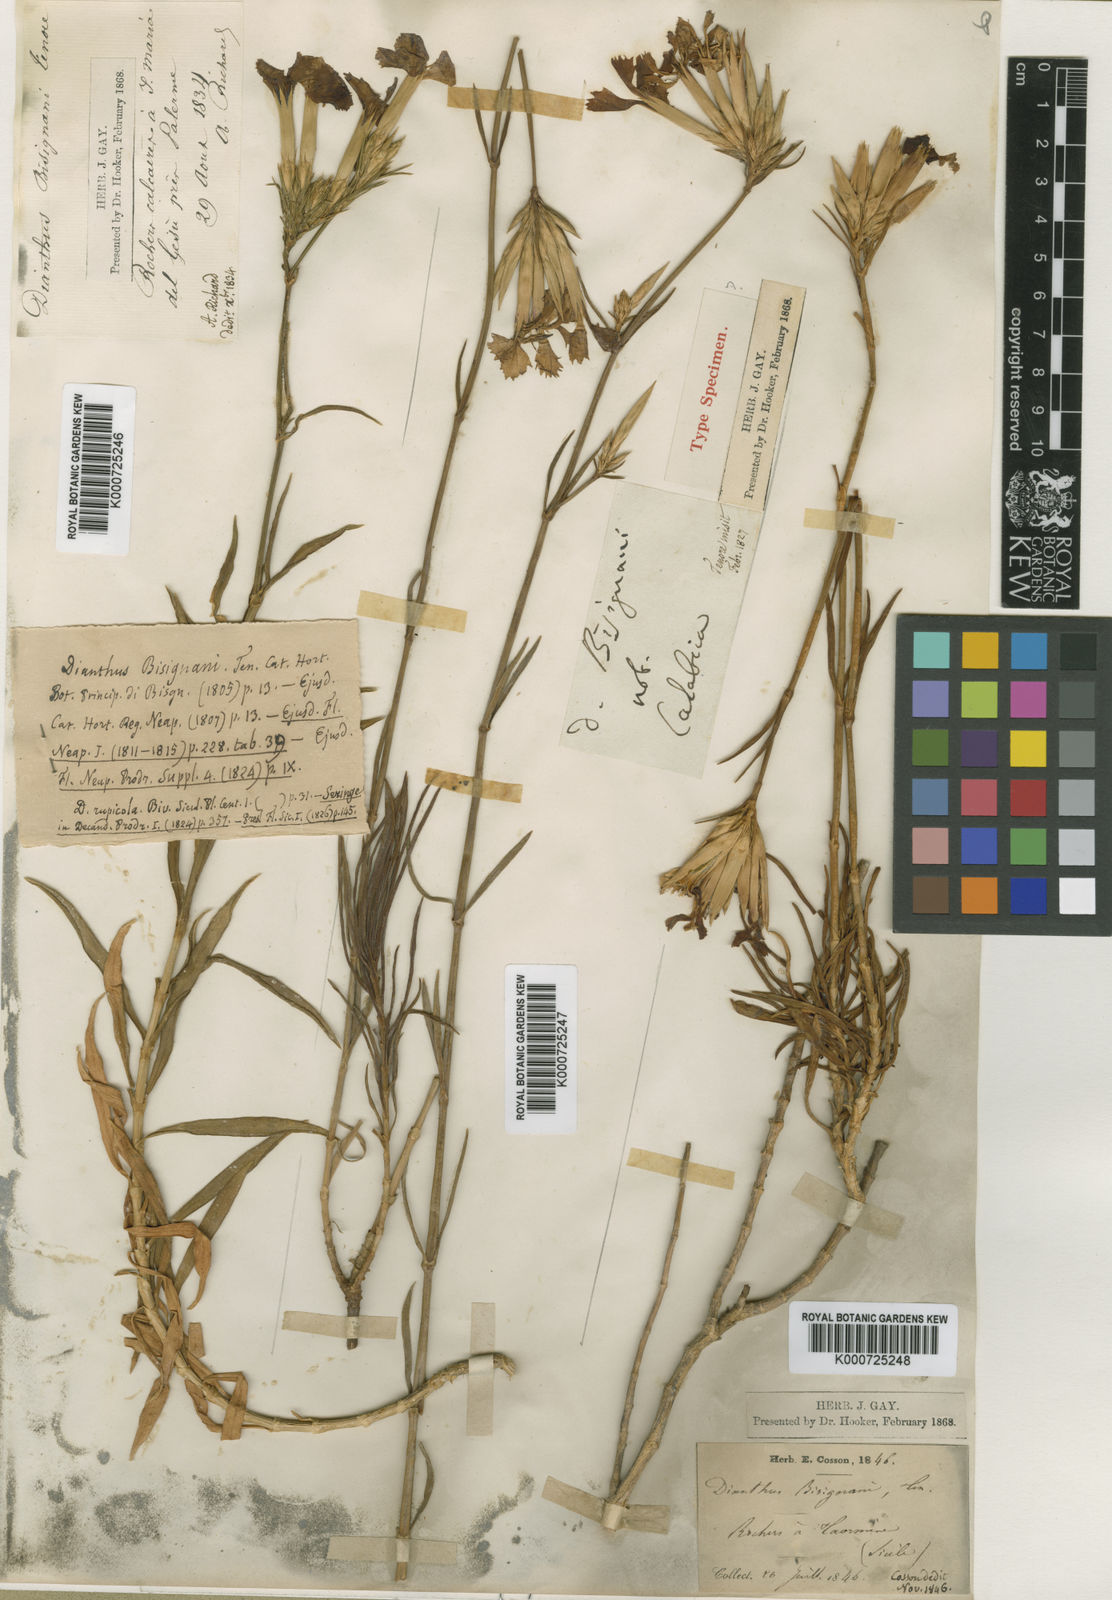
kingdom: Plantae
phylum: Tracheophyta
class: Magnoliopsida
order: Caryophyllales
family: Caryophyllaceae
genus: Dianthus
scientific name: Dianthus rupicola
